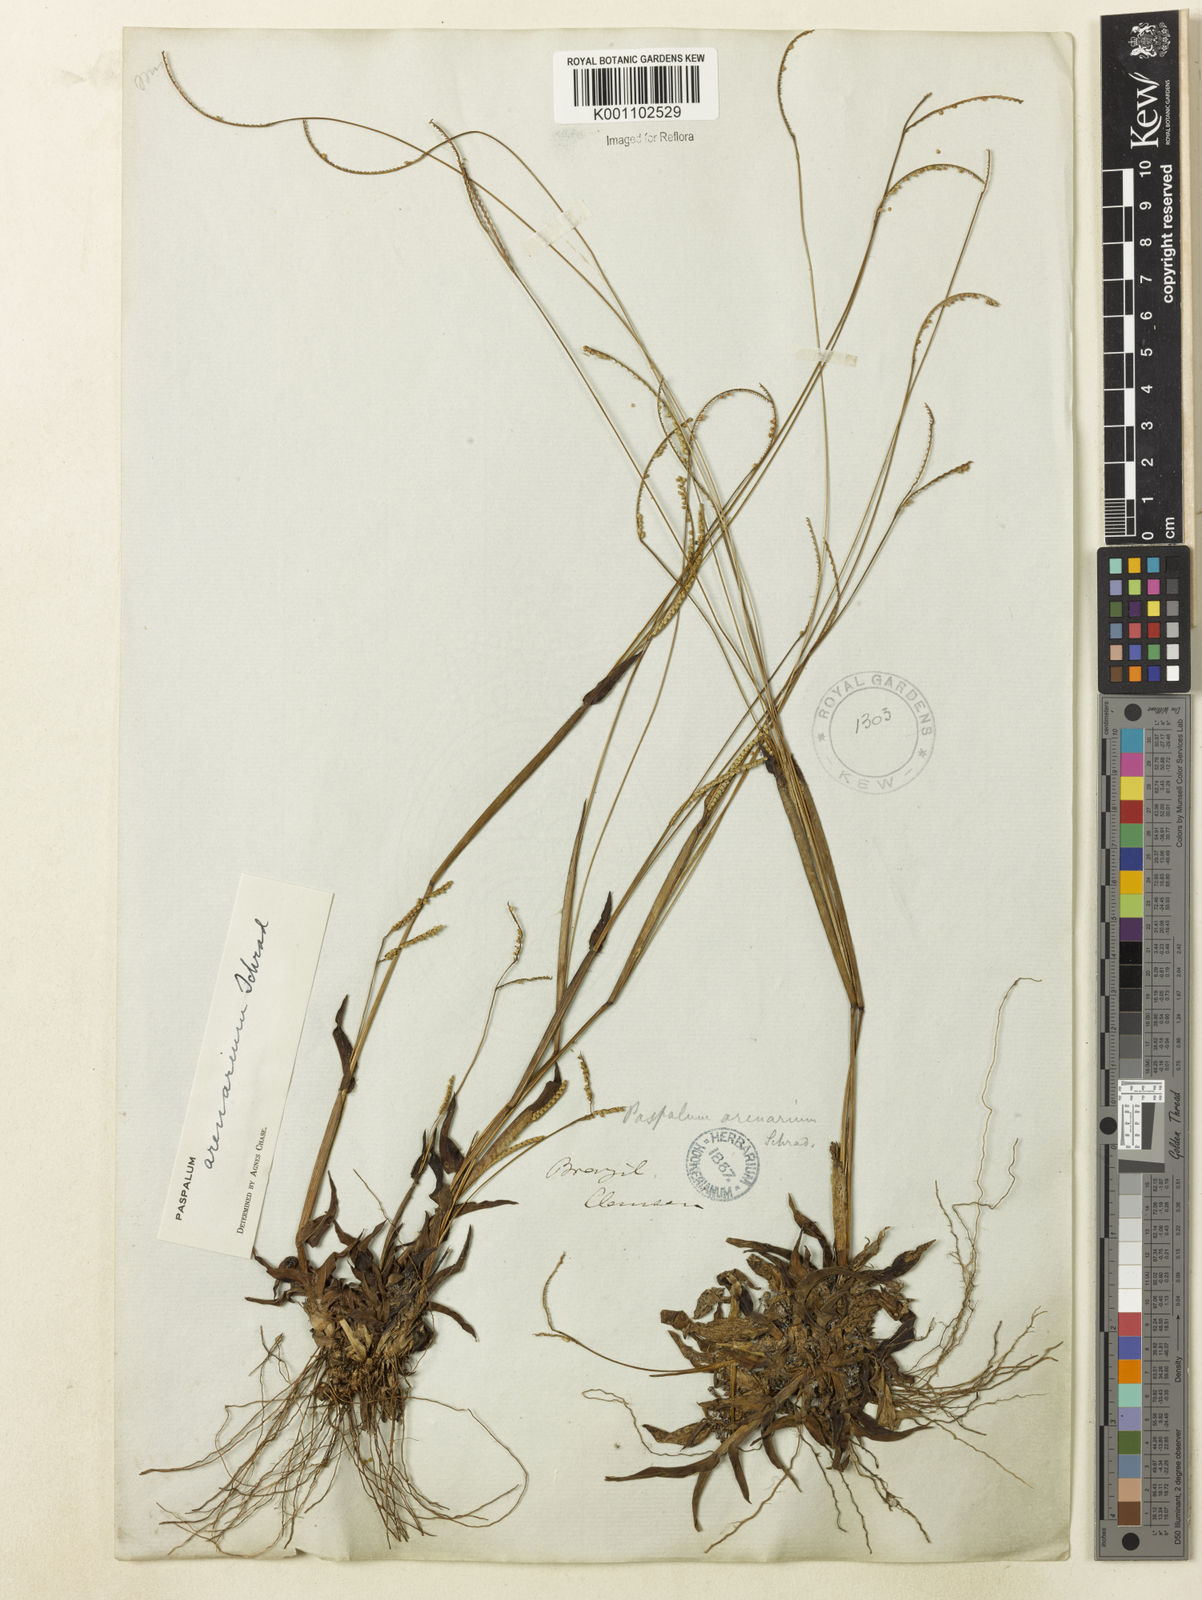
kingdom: Plantae
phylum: Tracheophyta
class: Liliopsida
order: Poales
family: Poaceae
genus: Paspalum
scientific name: Paspalum arenarium
